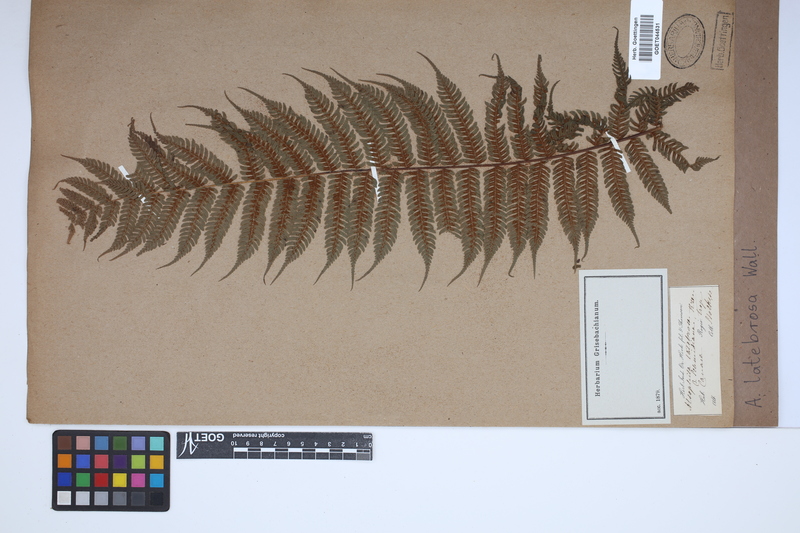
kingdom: Plantae
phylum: Tracheophyta
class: Polypodiopsida
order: Cyatheales
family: Cyatheaceae
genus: Alsophila
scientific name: Alsophila nilgirensis
